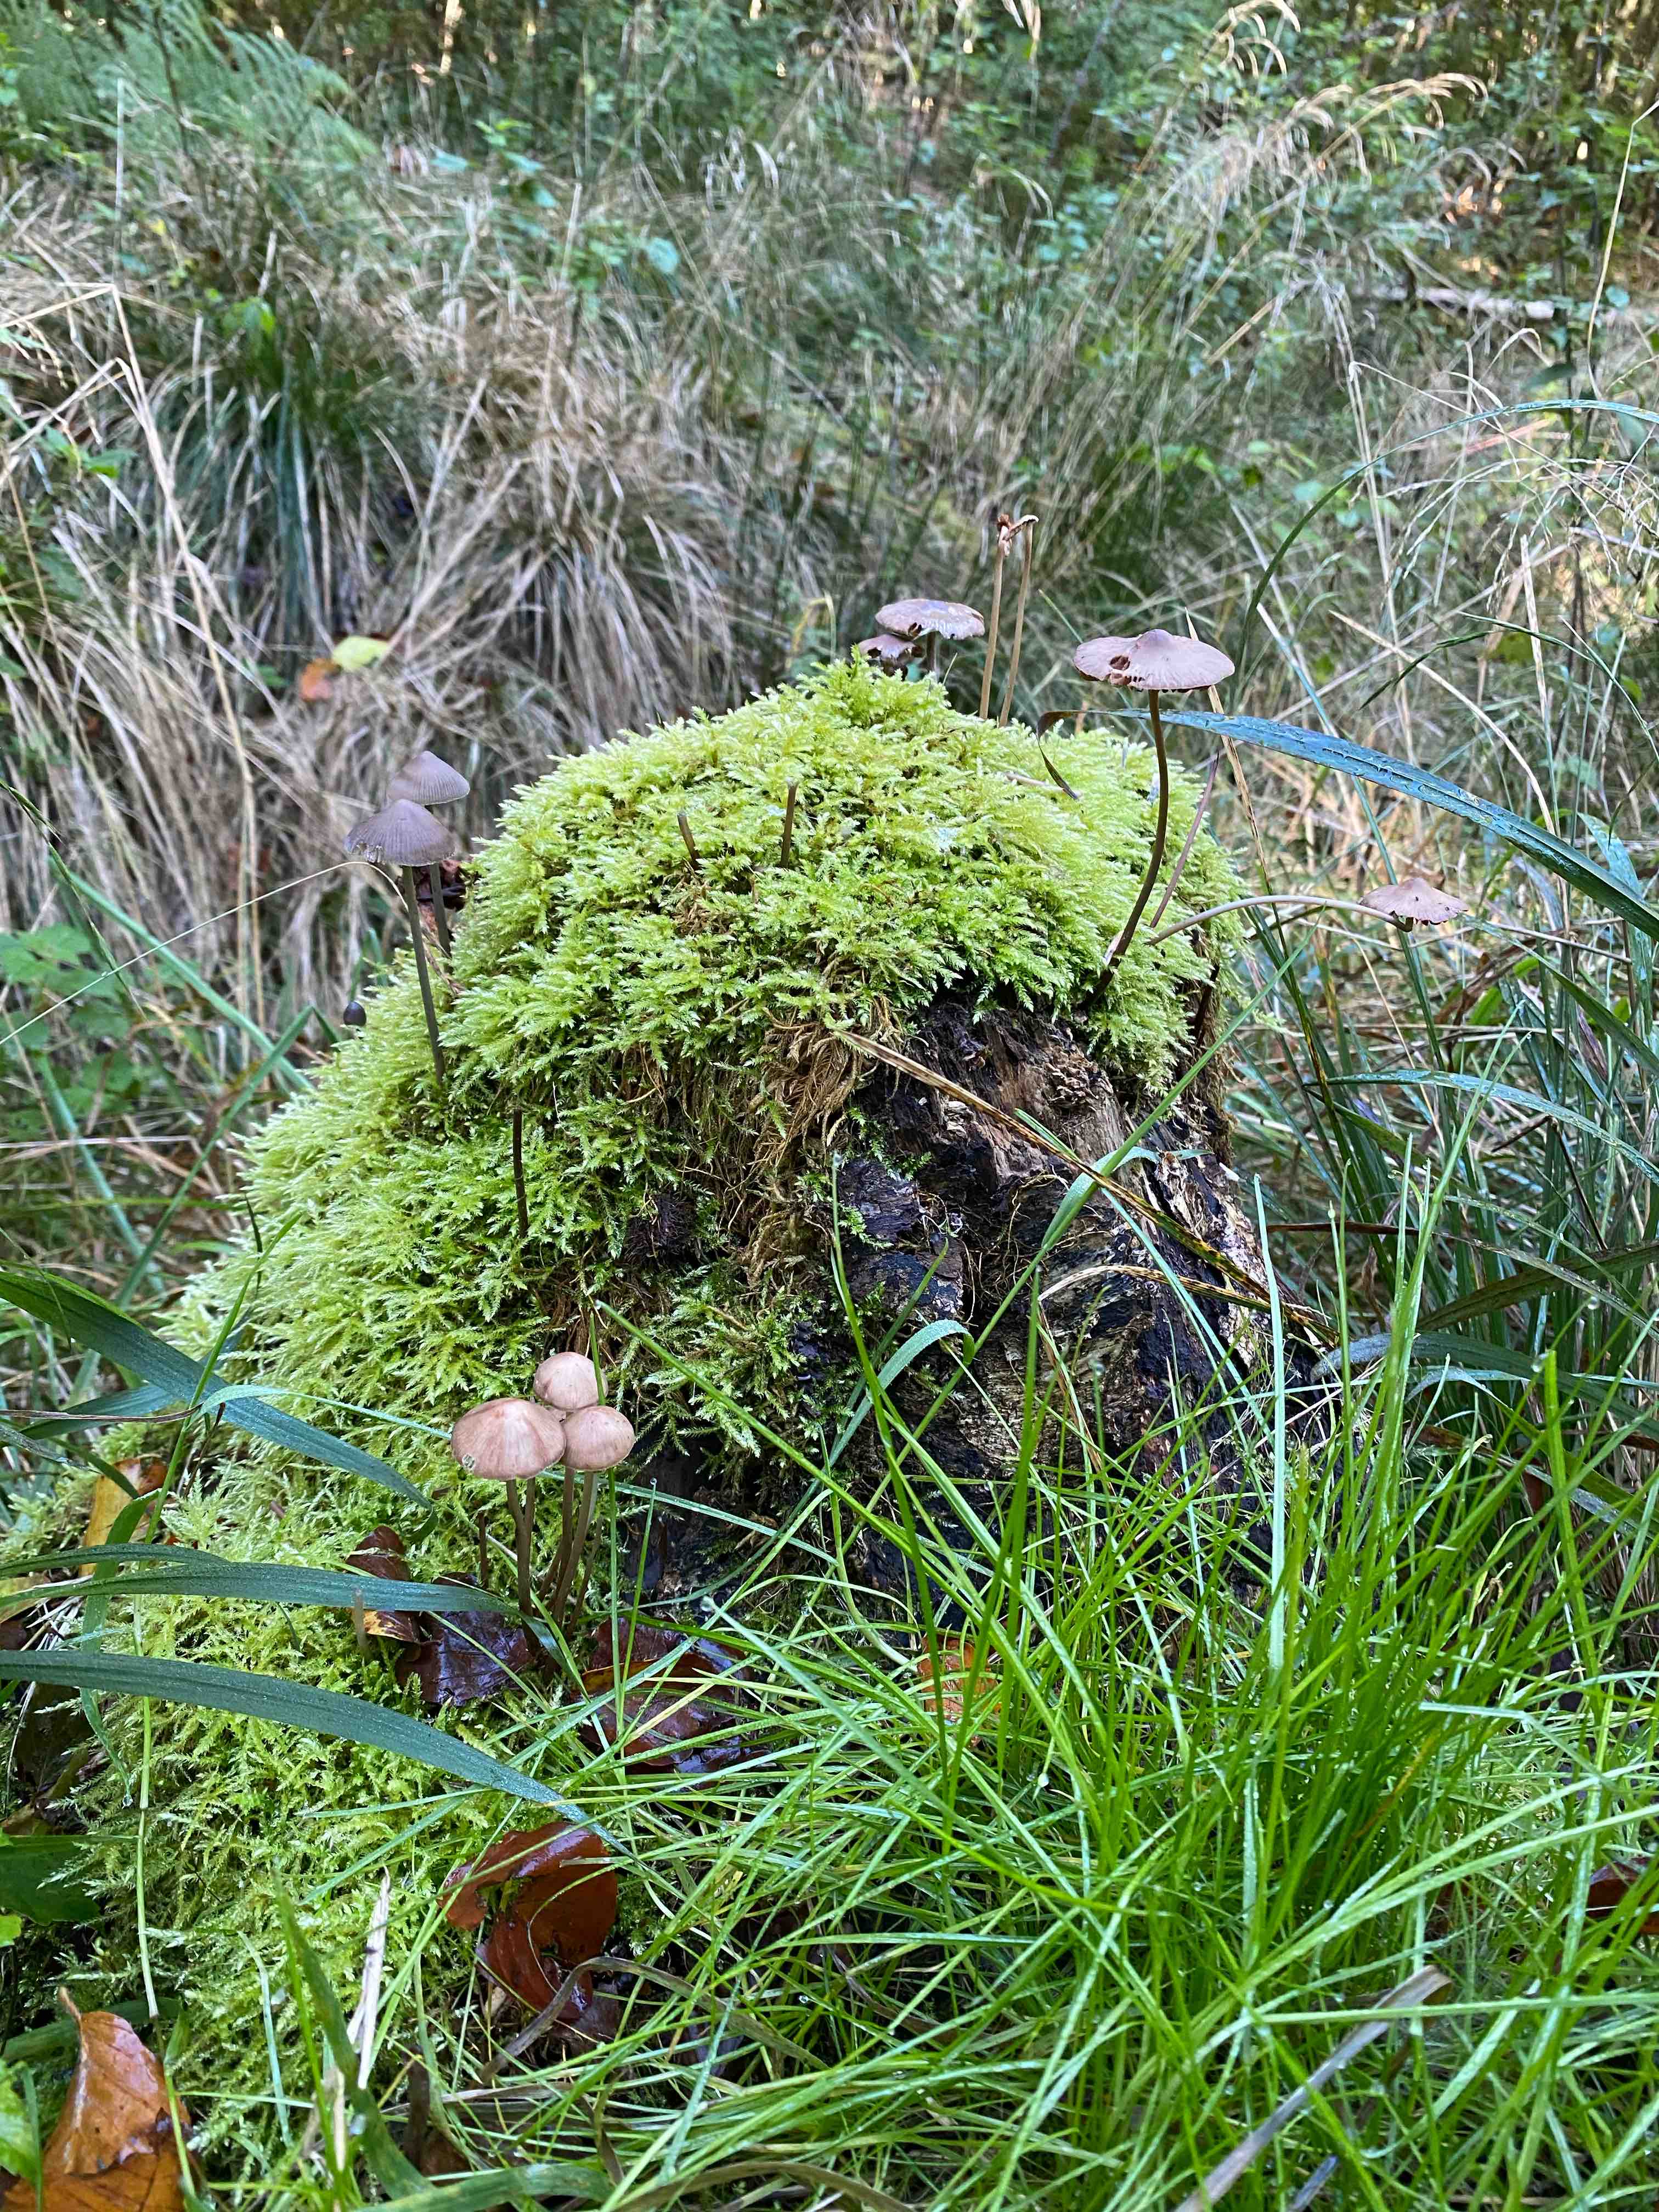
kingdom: Fungi
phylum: Basidiomycota
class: Agaricomycetes
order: Agaricales
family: Omphalotaceae
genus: Mycetinis
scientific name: Mycetinis alliaceus
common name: stor løghat
